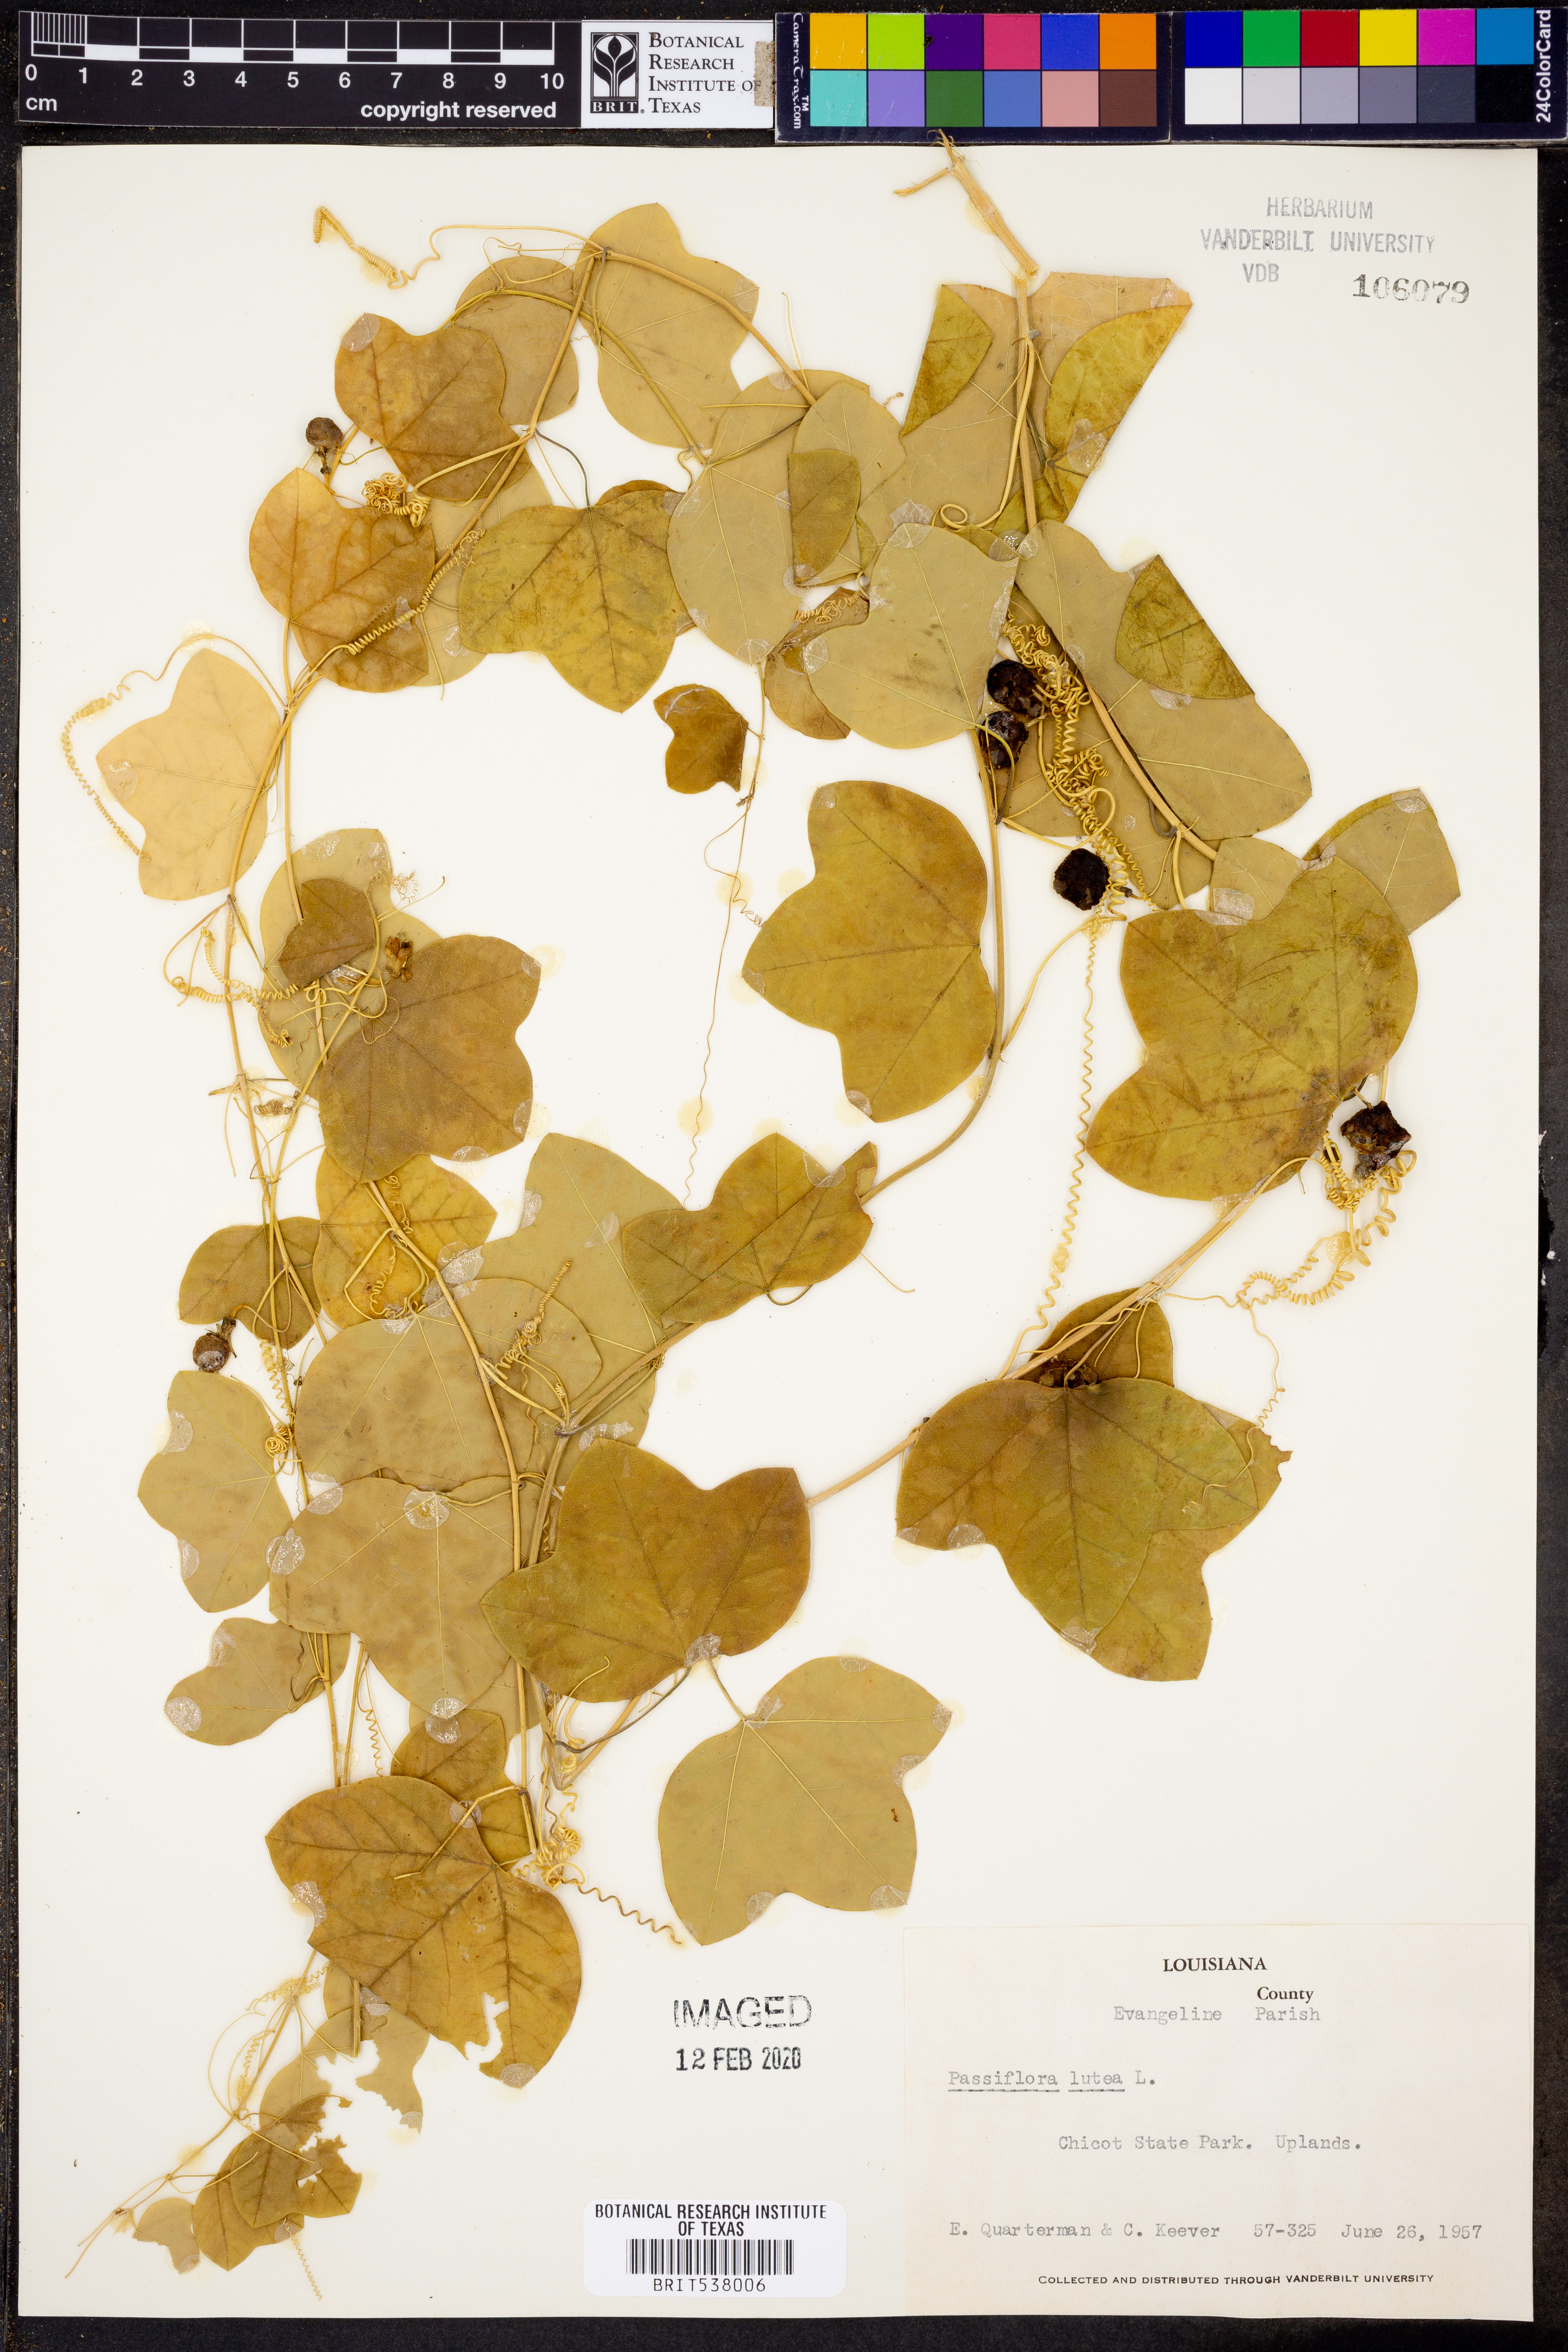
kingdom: Plantae
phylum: Tracheophyta
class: Magnoliopsida
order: Malpighiales
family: Passifloraceae
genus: Passiflora
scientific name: Passiflora lutea
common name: Yellow passionflower
